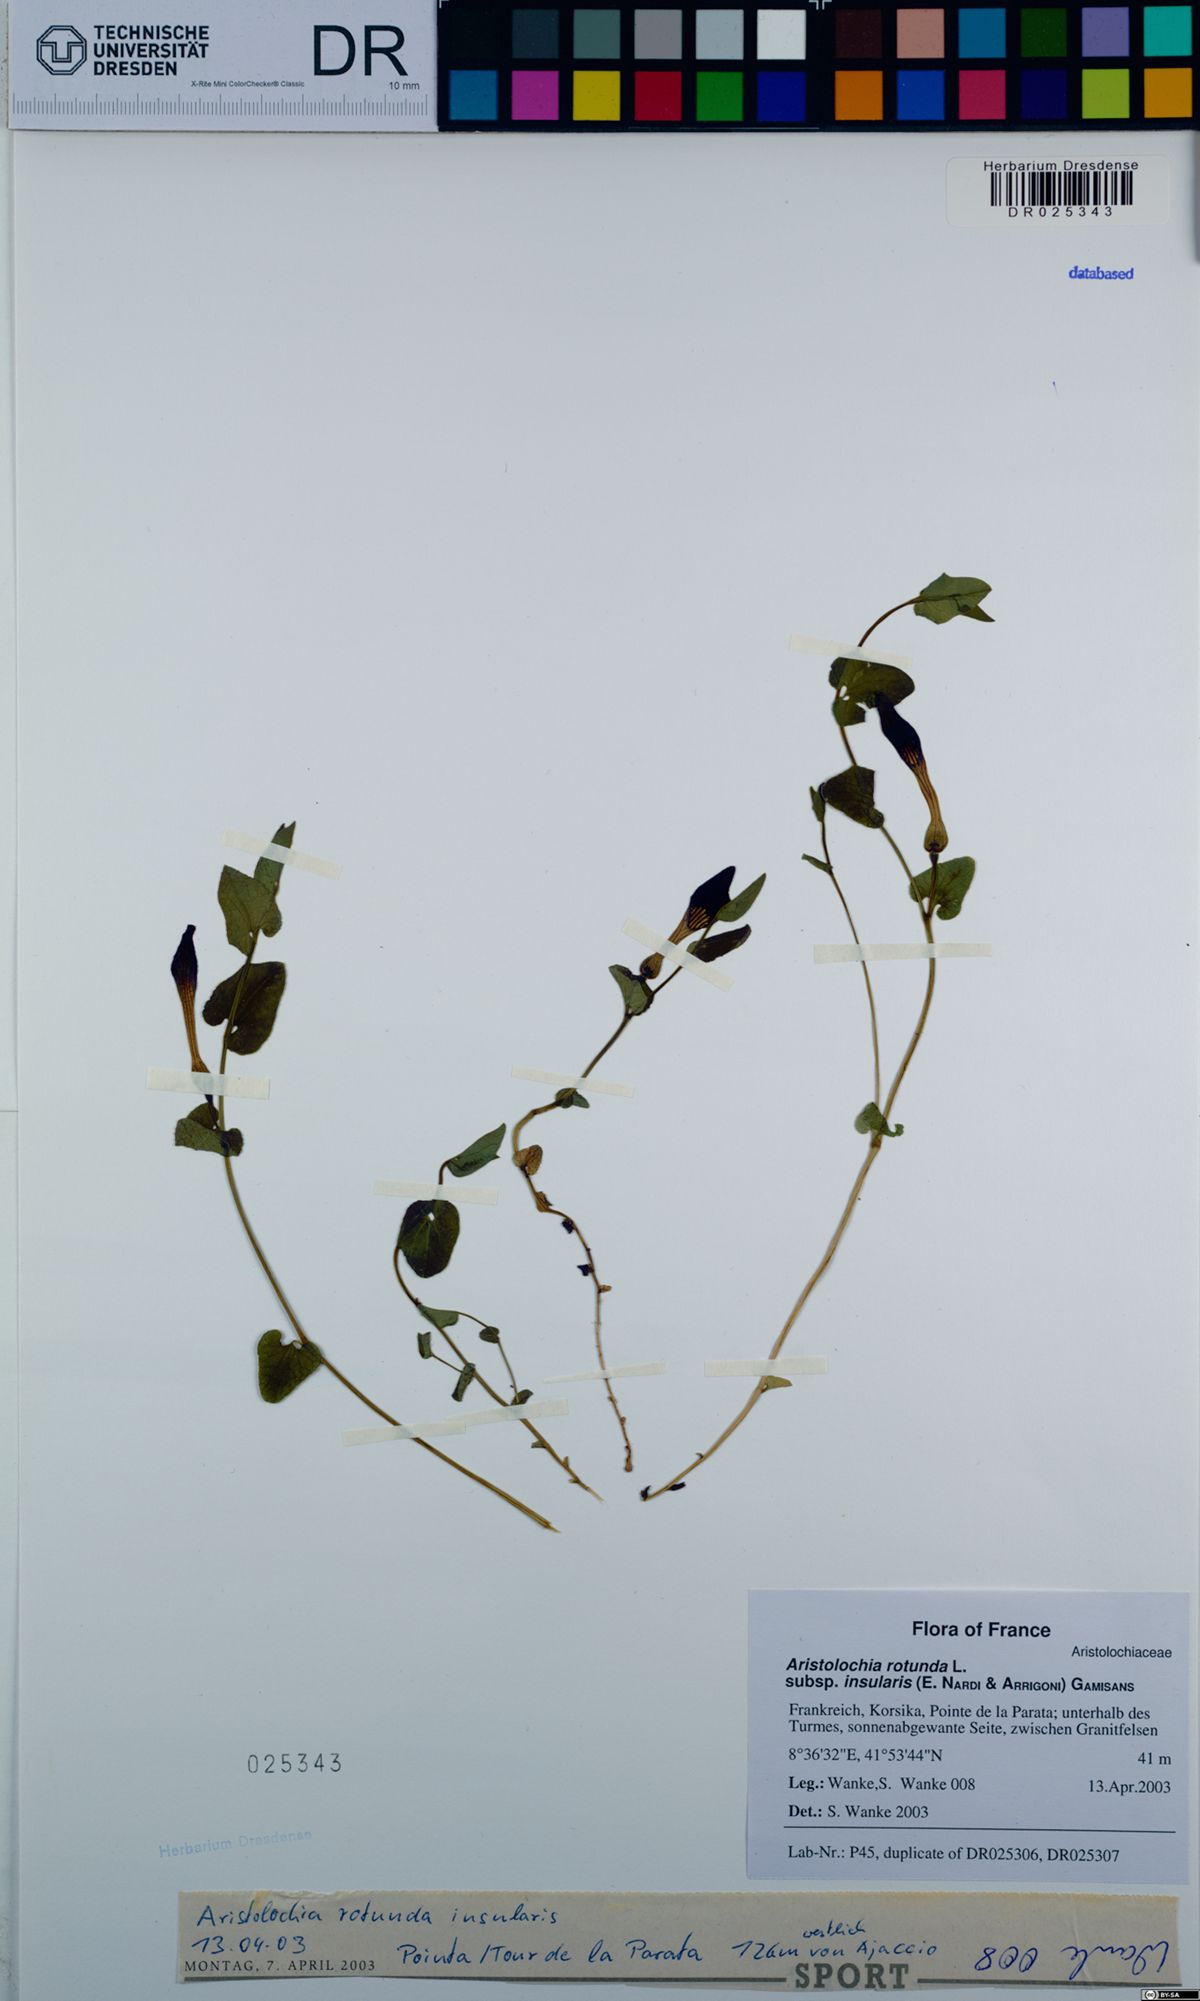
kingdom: Plantae
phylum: Tracheophyta
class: Magnoliopsida
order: Piperales
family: Aristolochiaceae
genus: Aristolochia
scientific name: Aristolochia rotunda
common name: Smearwort
